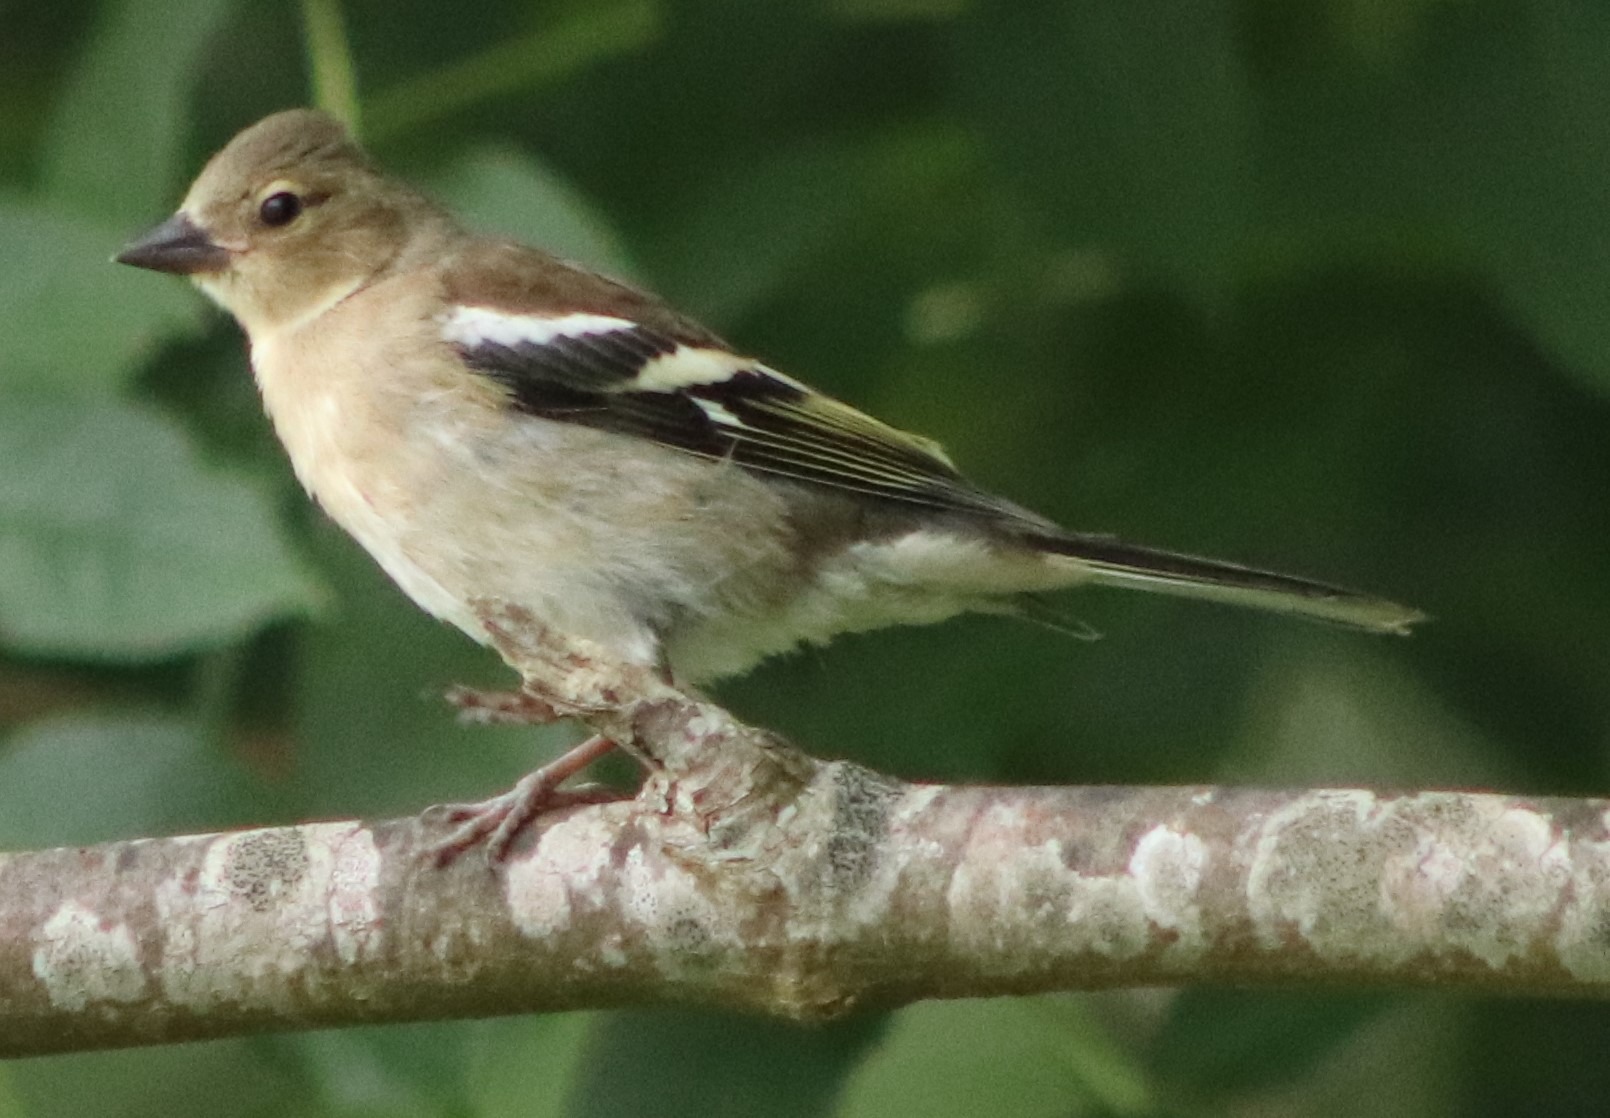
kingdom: Animalia
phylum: Chordata
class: Aves
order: Passeriformes
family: Fringillidae
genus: Fringilla
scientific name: Fringilla coelebs
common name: Bogfinke
